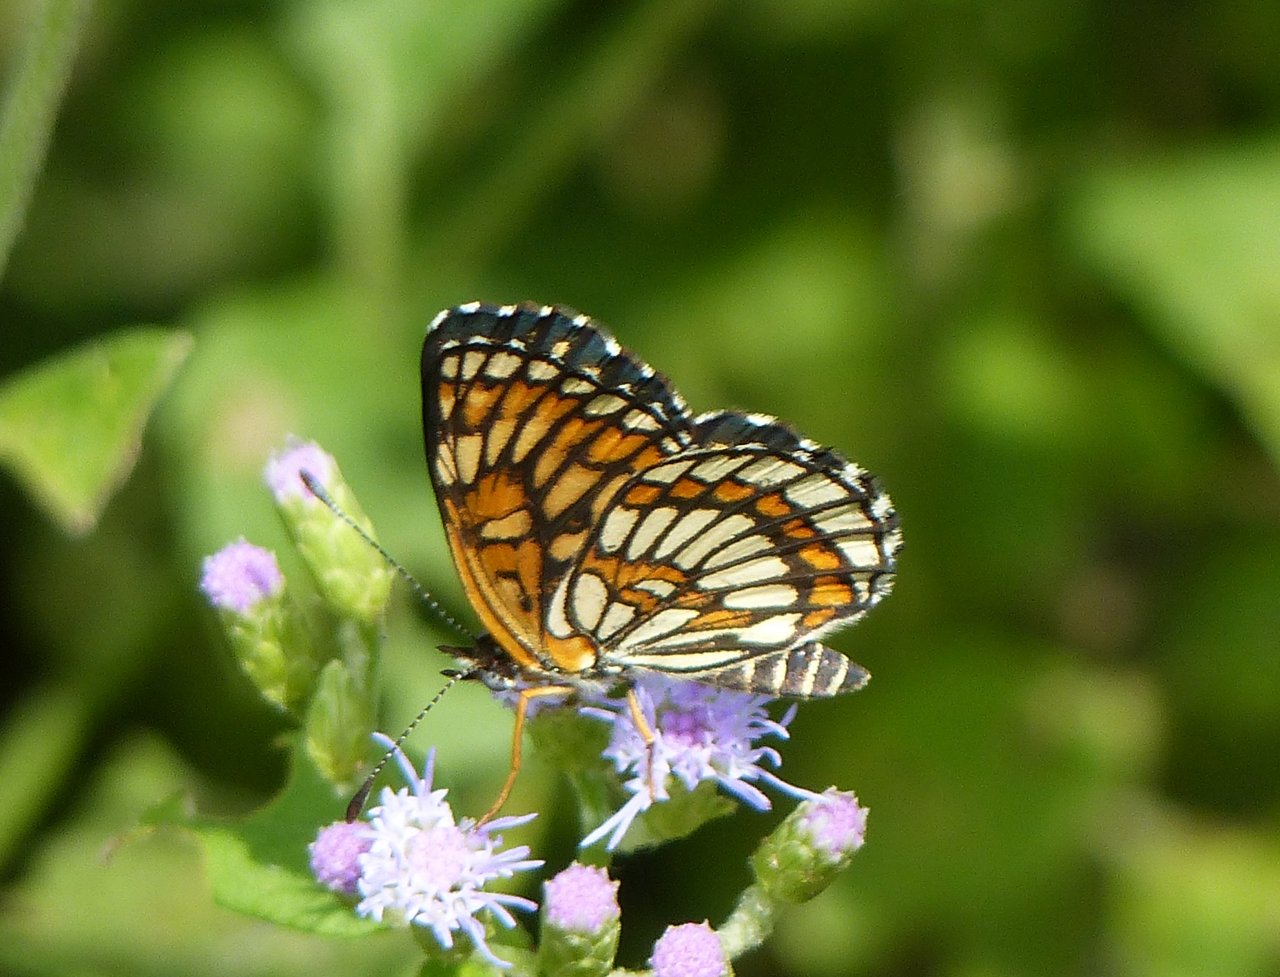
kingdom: Animalia
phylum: Arthropoda
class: Insecta
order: Lepidoptera
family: Nymphalidae
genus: Thessalia
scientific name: Thessalia theona
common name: Theona Checkerspot
